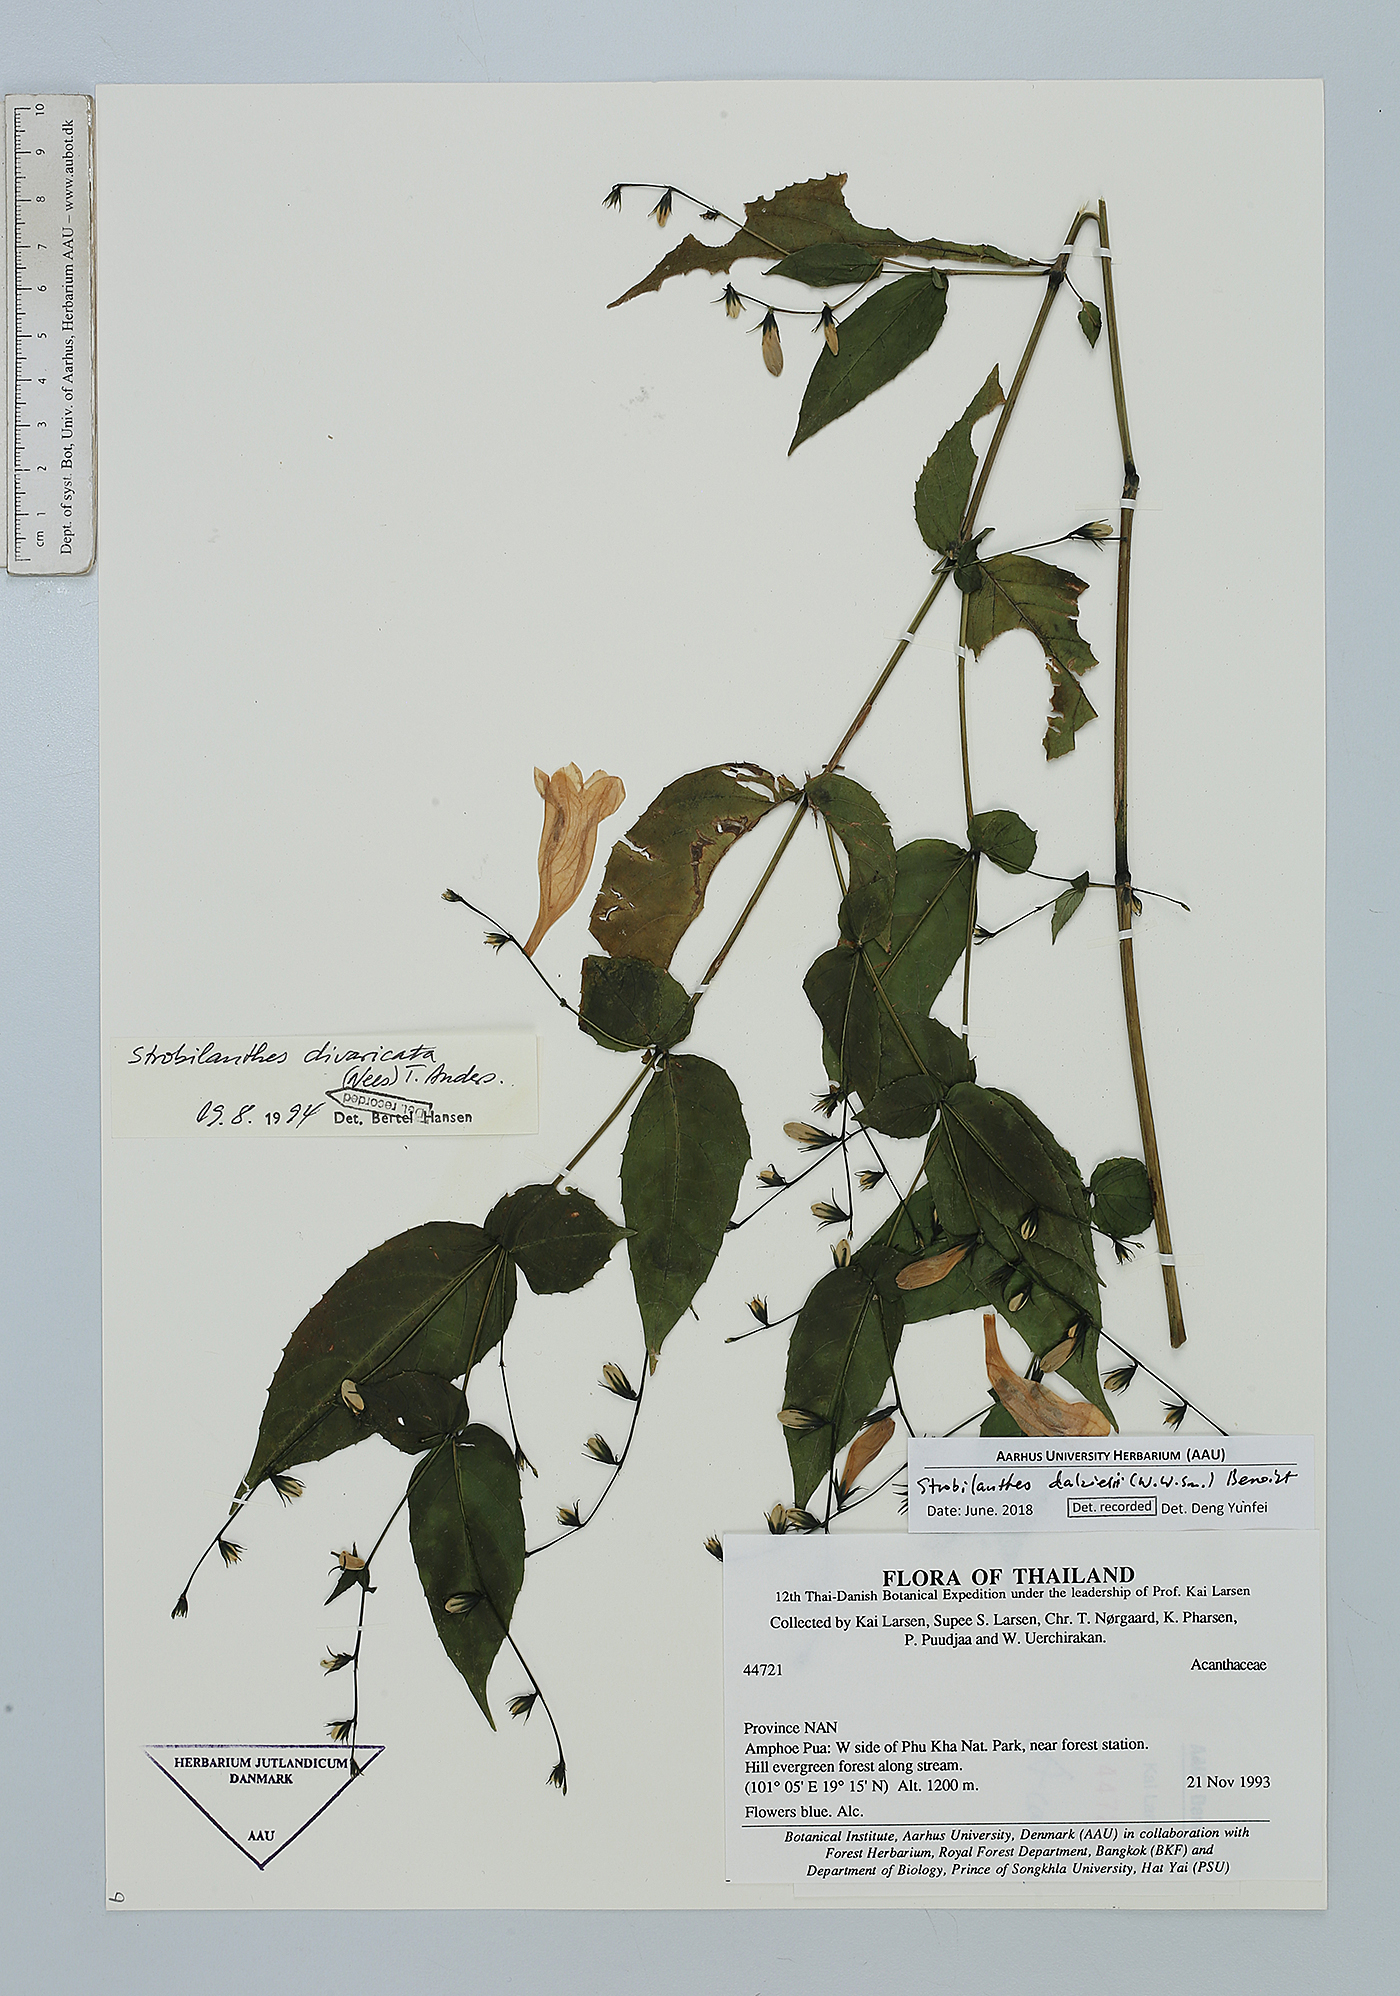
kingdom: Plantae
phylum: Tracheophyta
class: Magnoliopsida
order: Lamiales
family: Acanthaceae
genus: Strobilanthes
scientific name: Strobilanthes dalzielii
